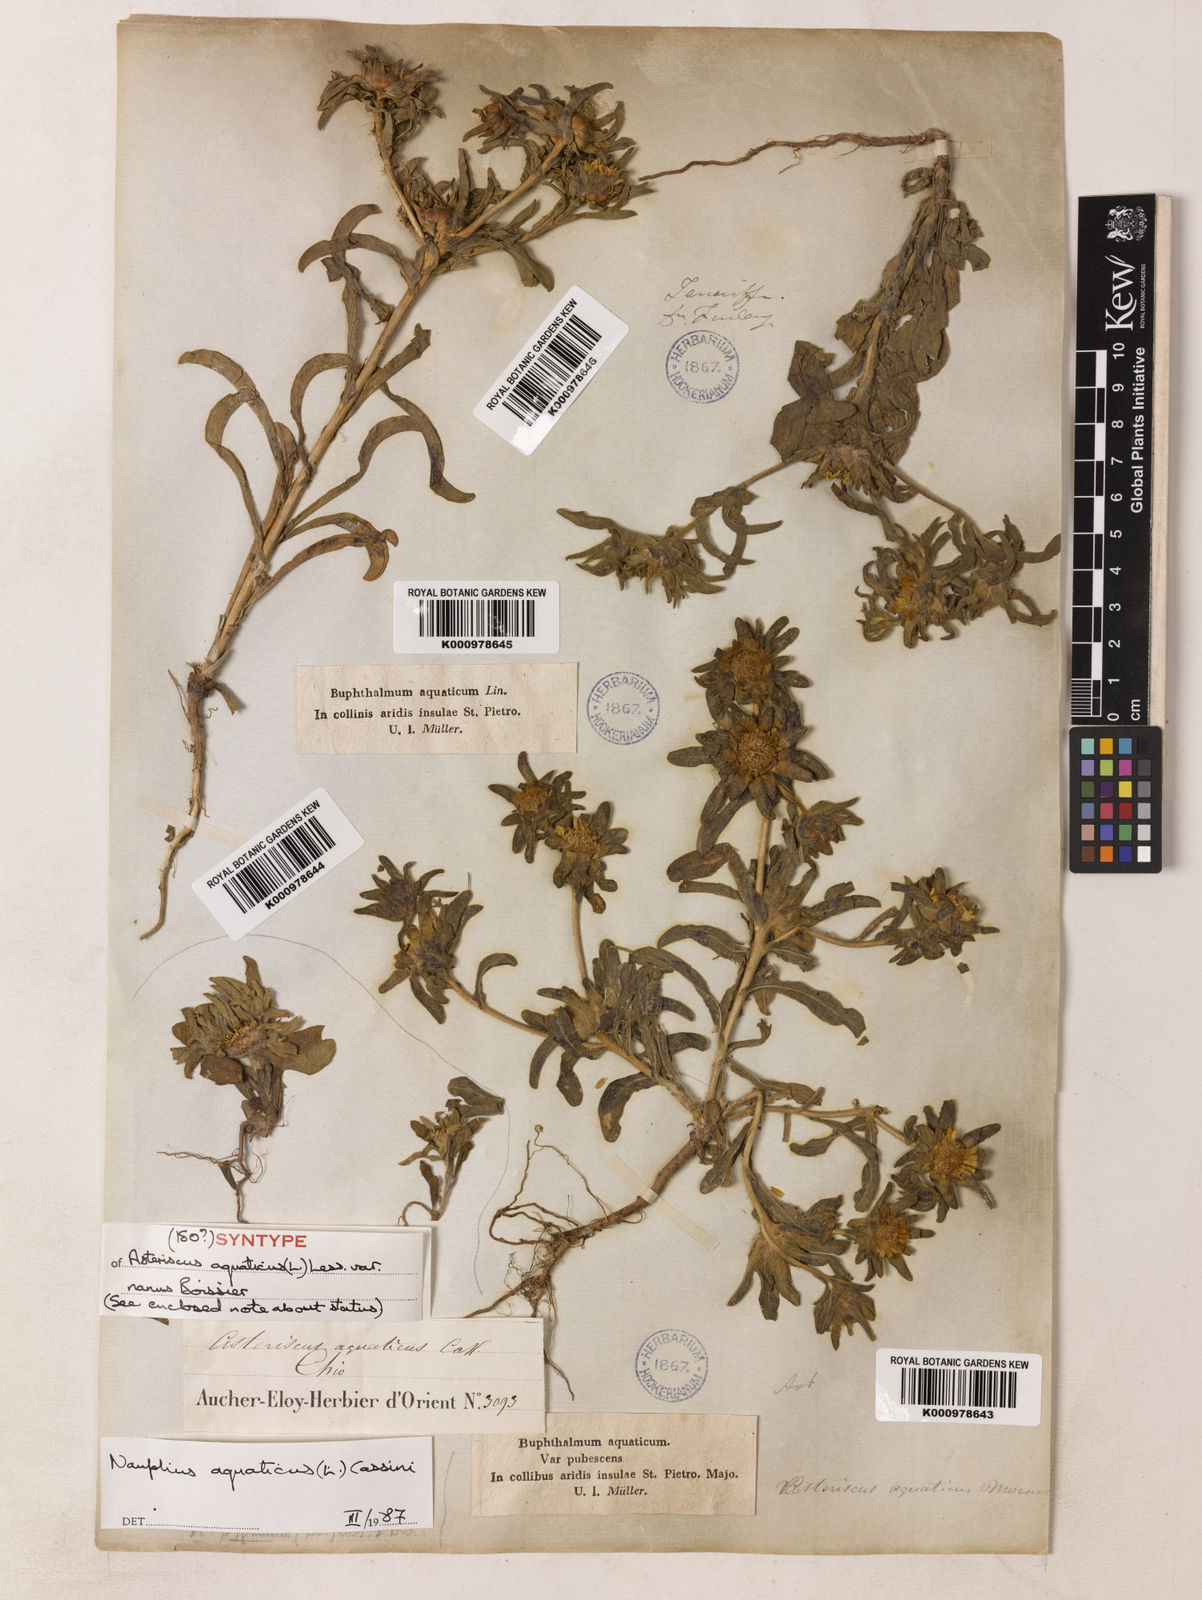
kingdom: Plantae
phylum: Tracheophyta
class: Magnoliopsida
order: Asterales
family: Asteraceae
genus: Asteriscus
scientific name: Asteriscus aquaticus
